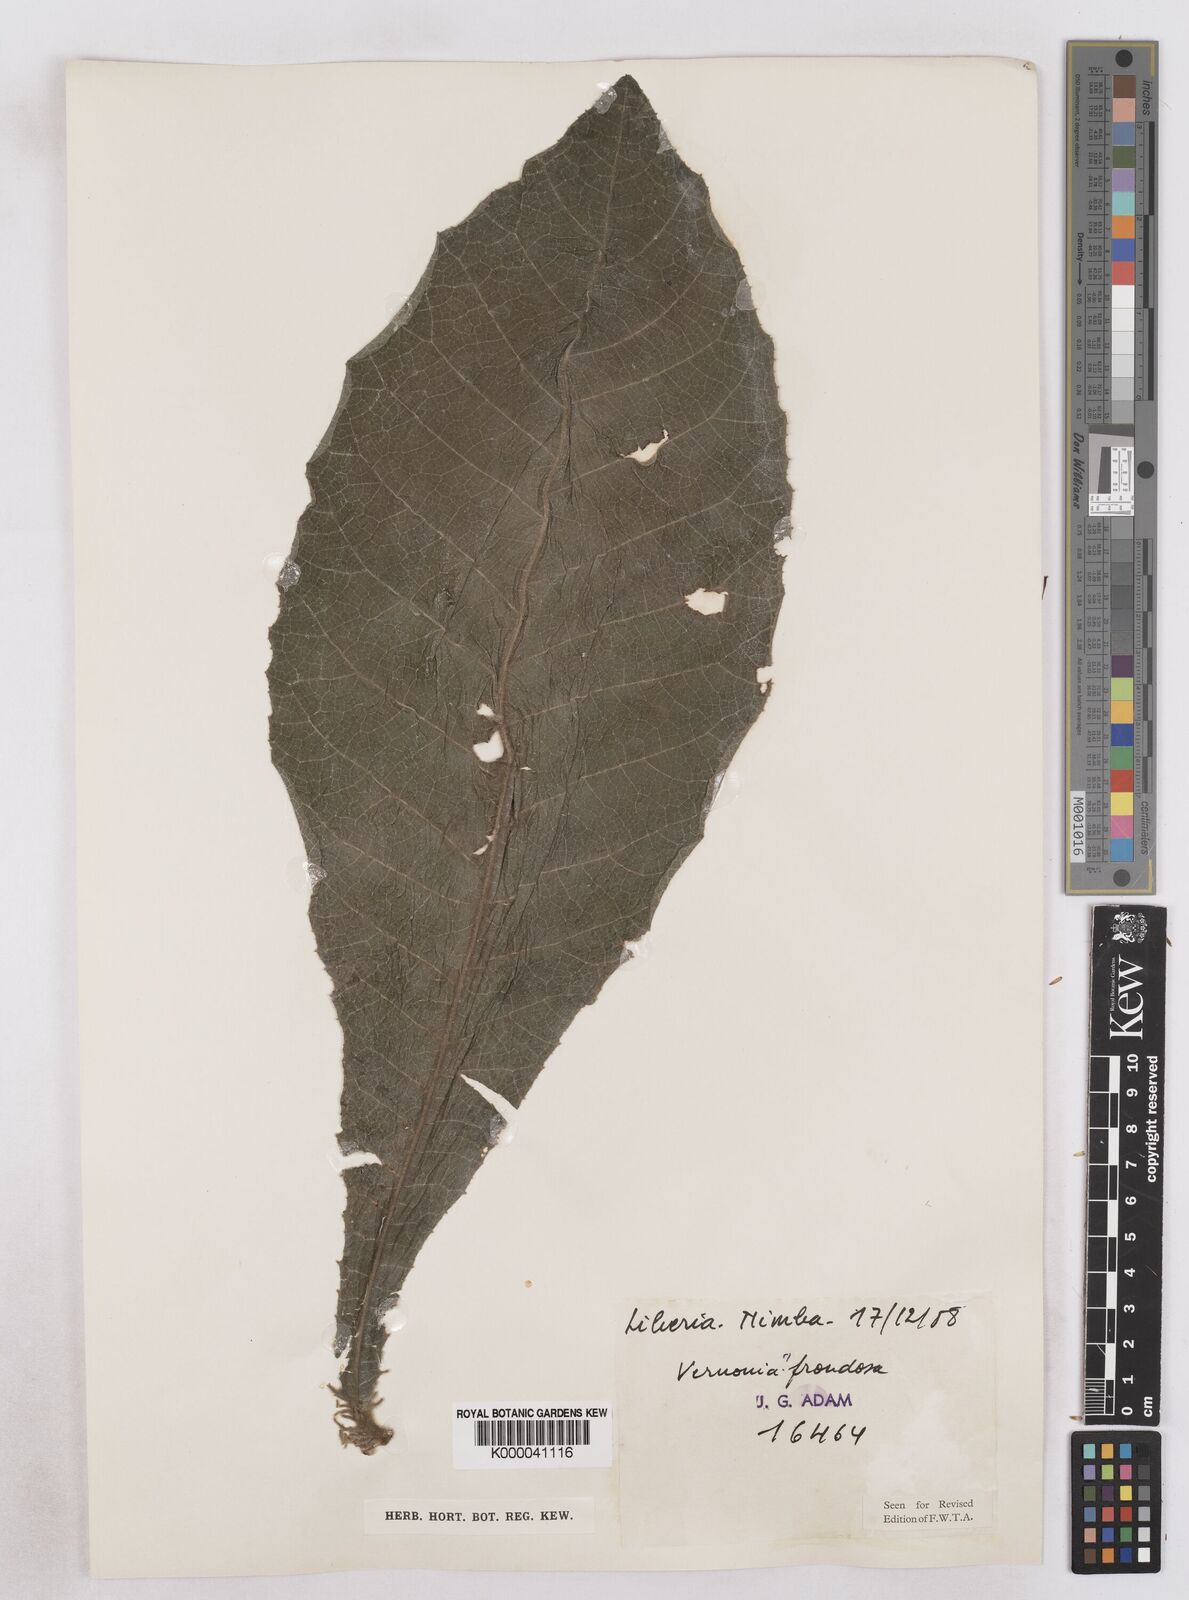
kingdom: Plantae
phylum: Tracheophyta
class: Magnoliopsida
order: Asterales
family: Asteraceae
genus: Brenandendron
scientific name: Brenandendron frondosum
